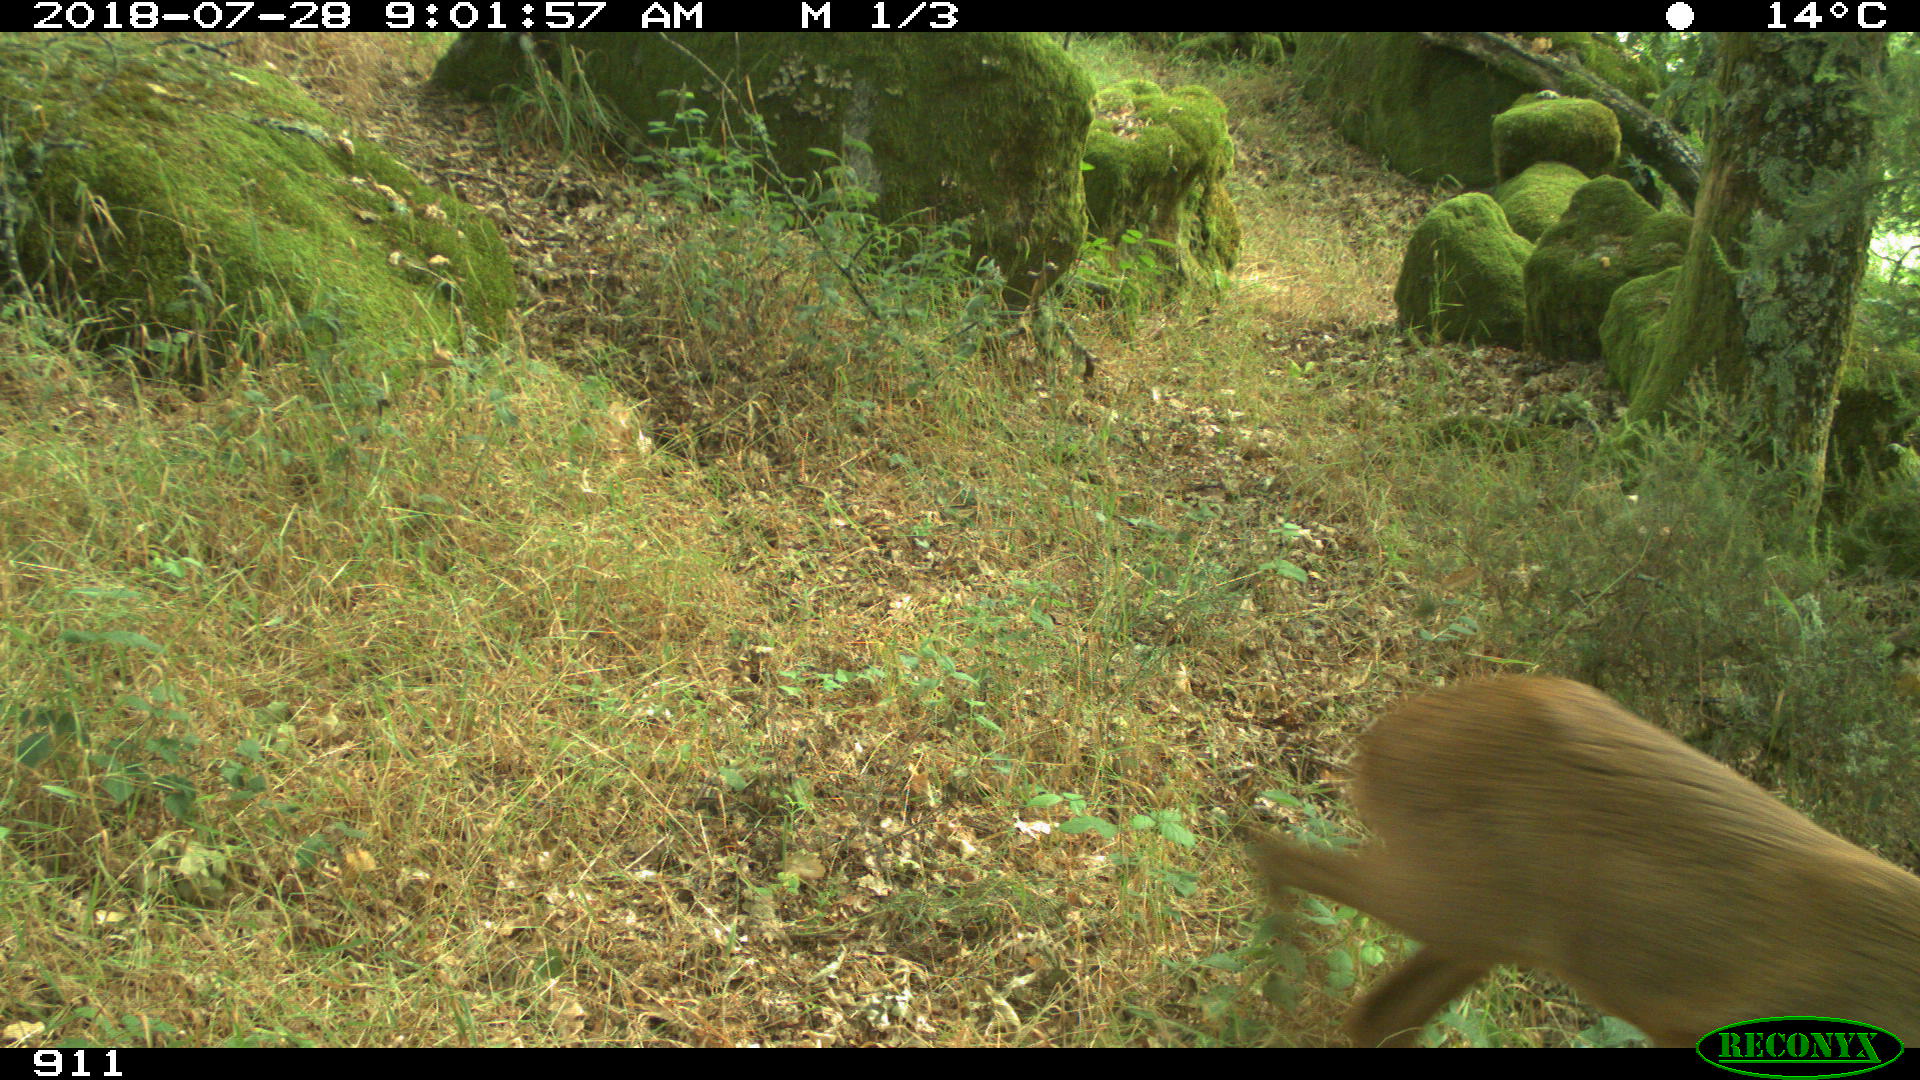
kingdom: Animalia
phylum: Chordata
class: Mammalia
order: Artiodactyla
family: Cervidae
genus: Capreolus
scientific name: Capreolus capreolus
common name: Western roe deer
